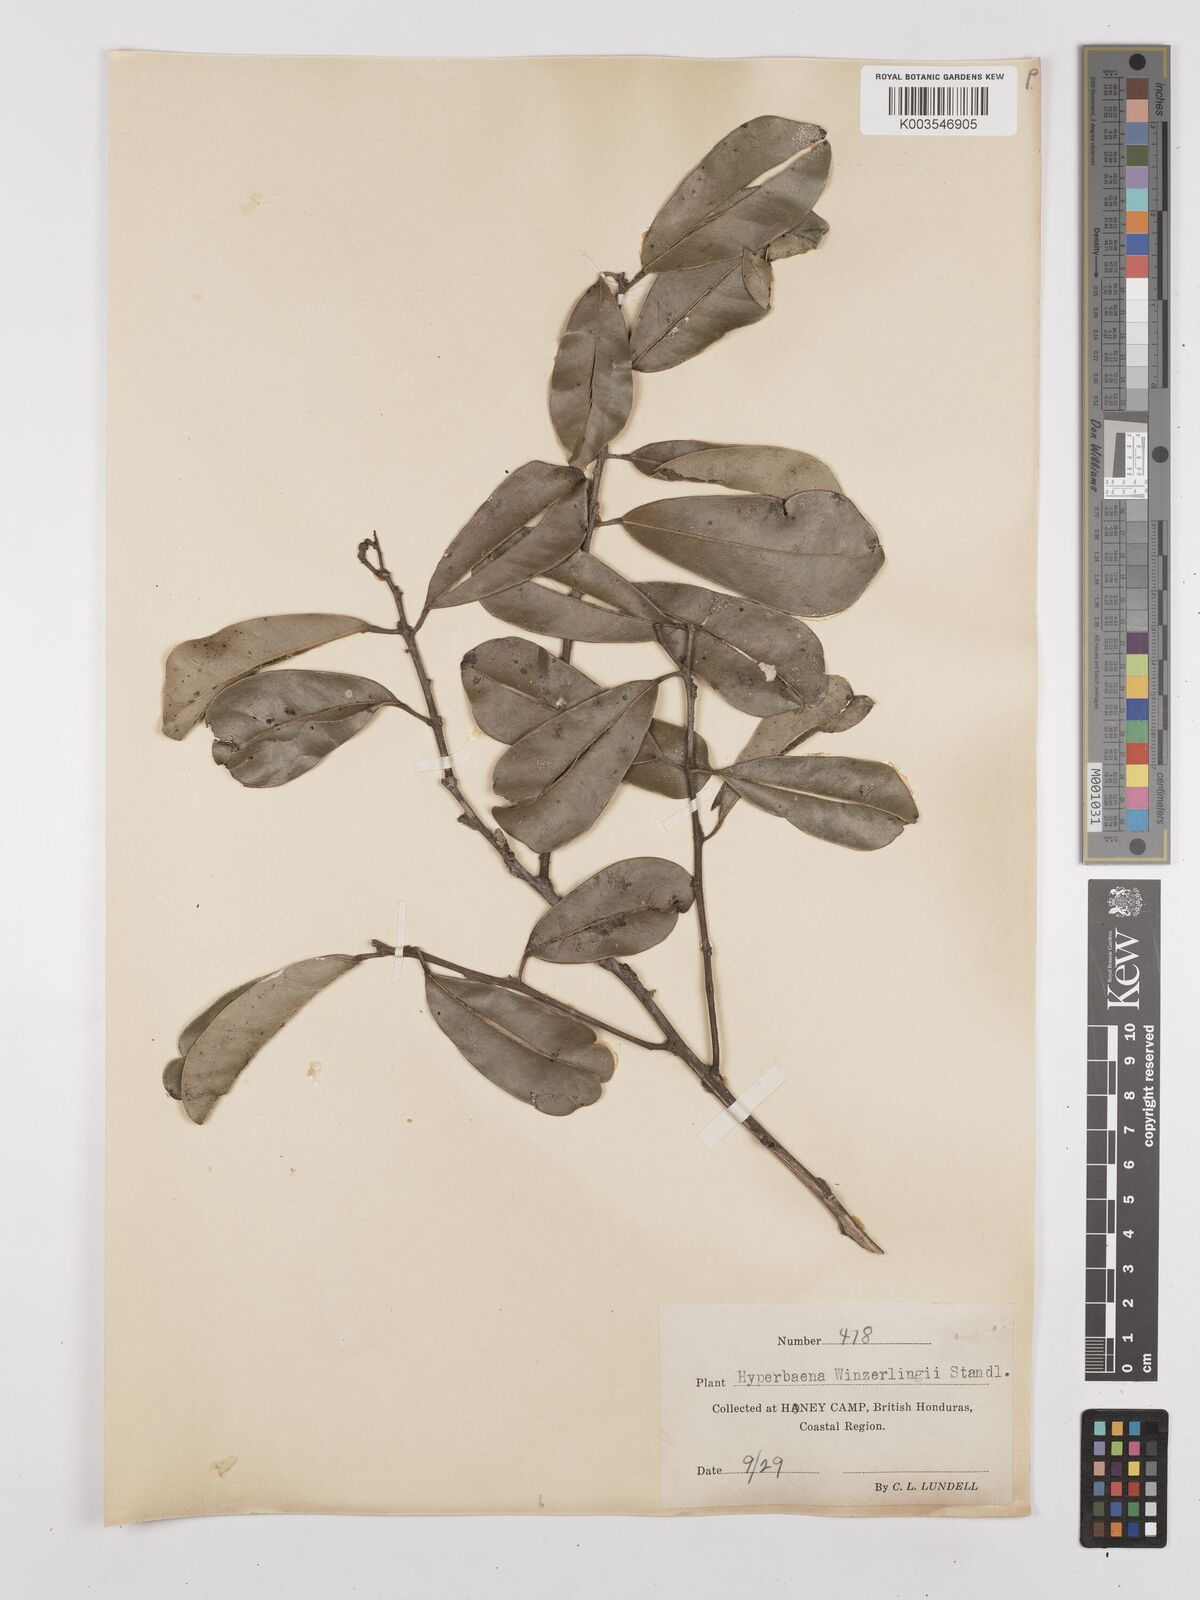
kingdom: Plantae
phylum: Tracheophyta
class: Magnoliopsida
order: Ranunculales
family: Menispermaceae
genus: Hyperbaena
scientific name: Hyperbaena winzerlingii
